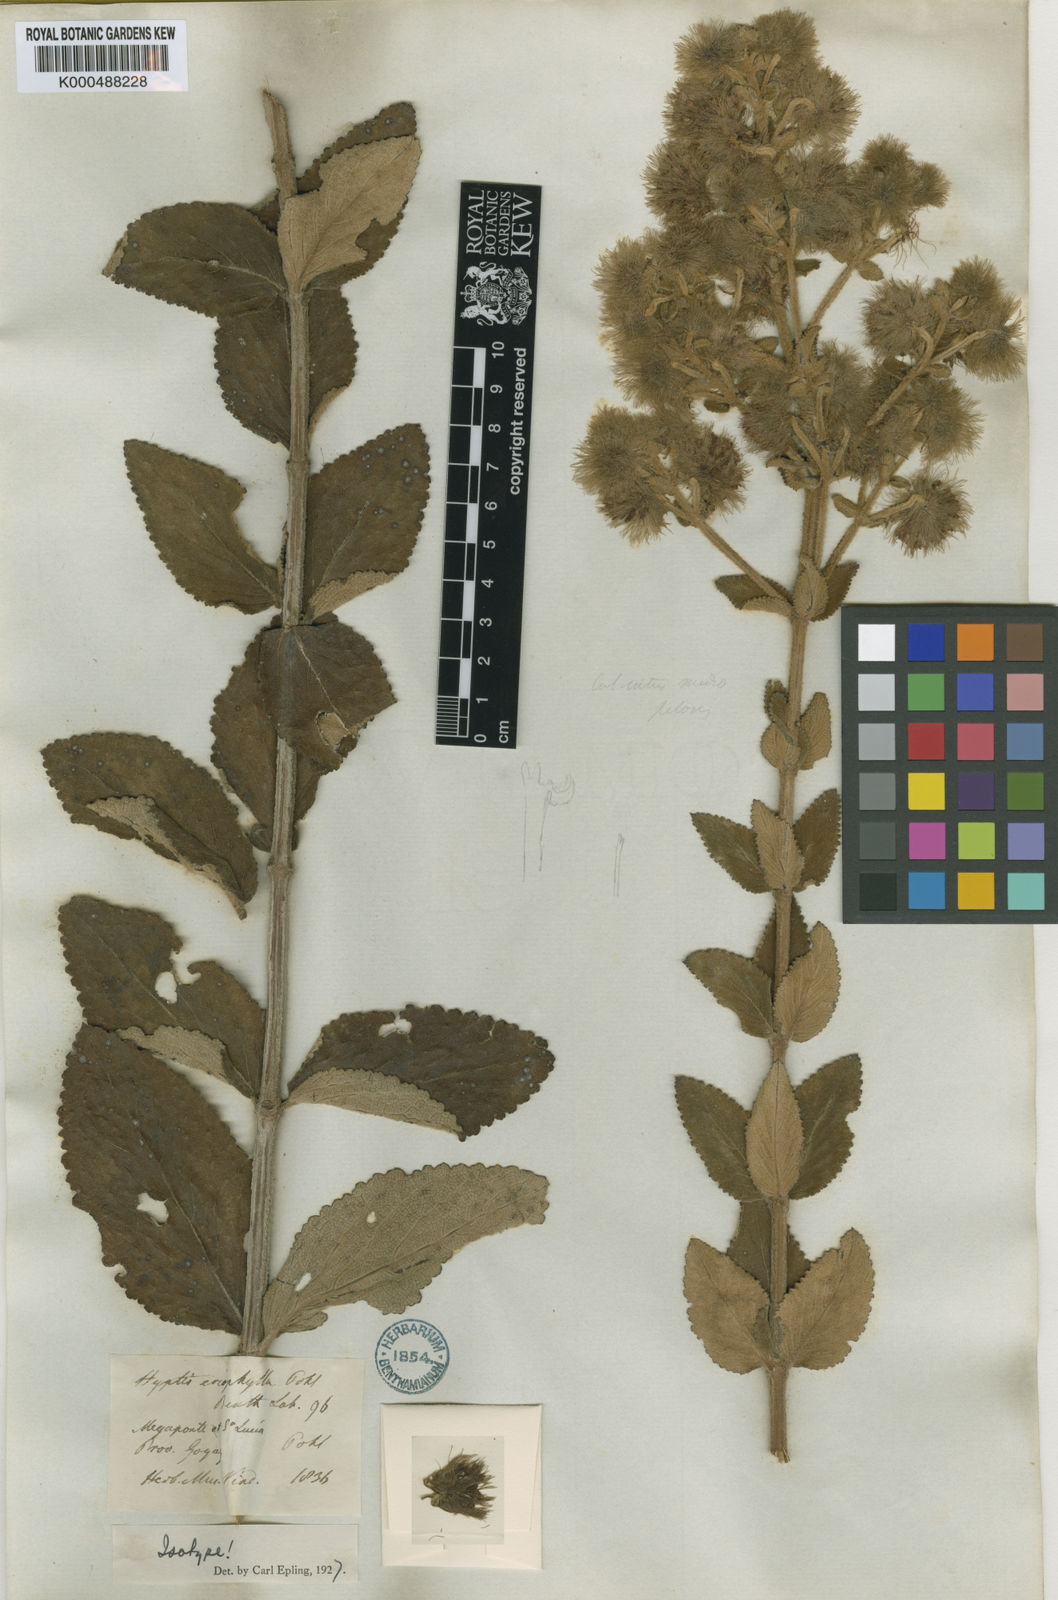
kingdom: Plantae
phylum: Tracheophyta
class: Magnoliopsida
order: Lamiales
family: Lamiaceae
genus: Medusantha
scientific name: Medusantha eriophylla
